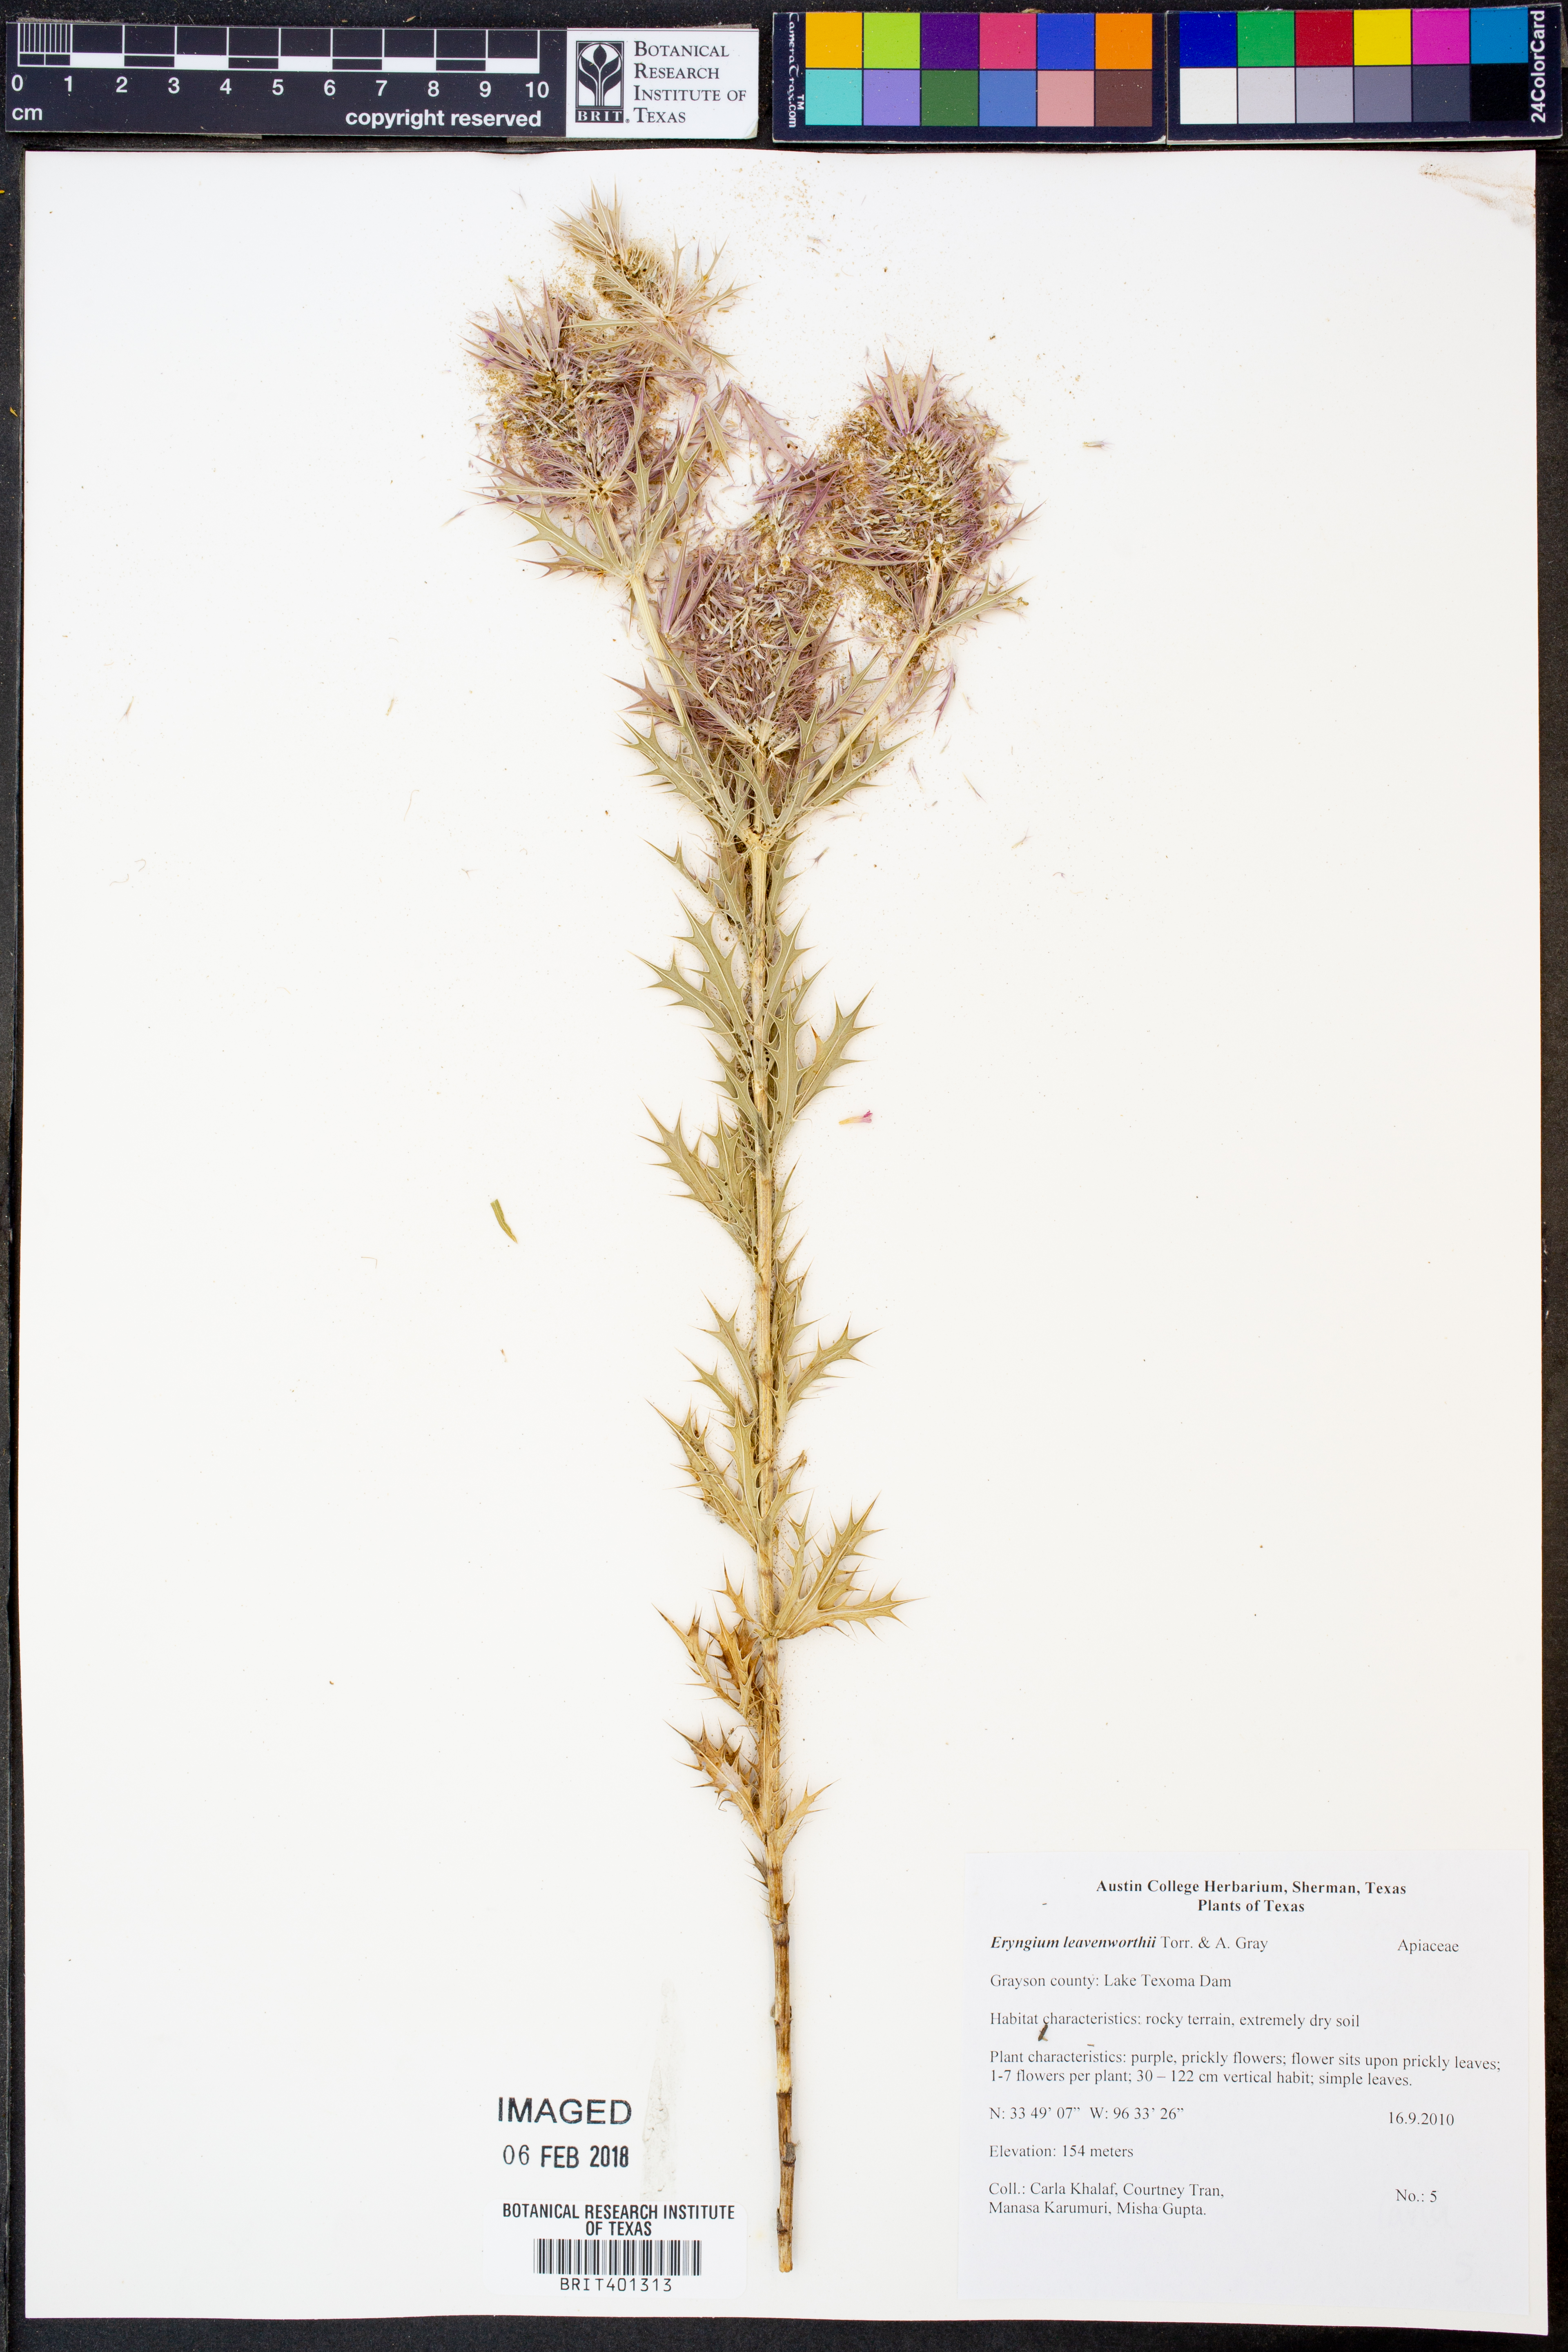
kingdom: Plantae
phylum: Tracheophyta
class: Magnoliopsida
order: Apiales
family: Apiaceae
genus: Eryngium
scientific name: Eryngium leavenworthii
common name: Leavenworth's eryngo
